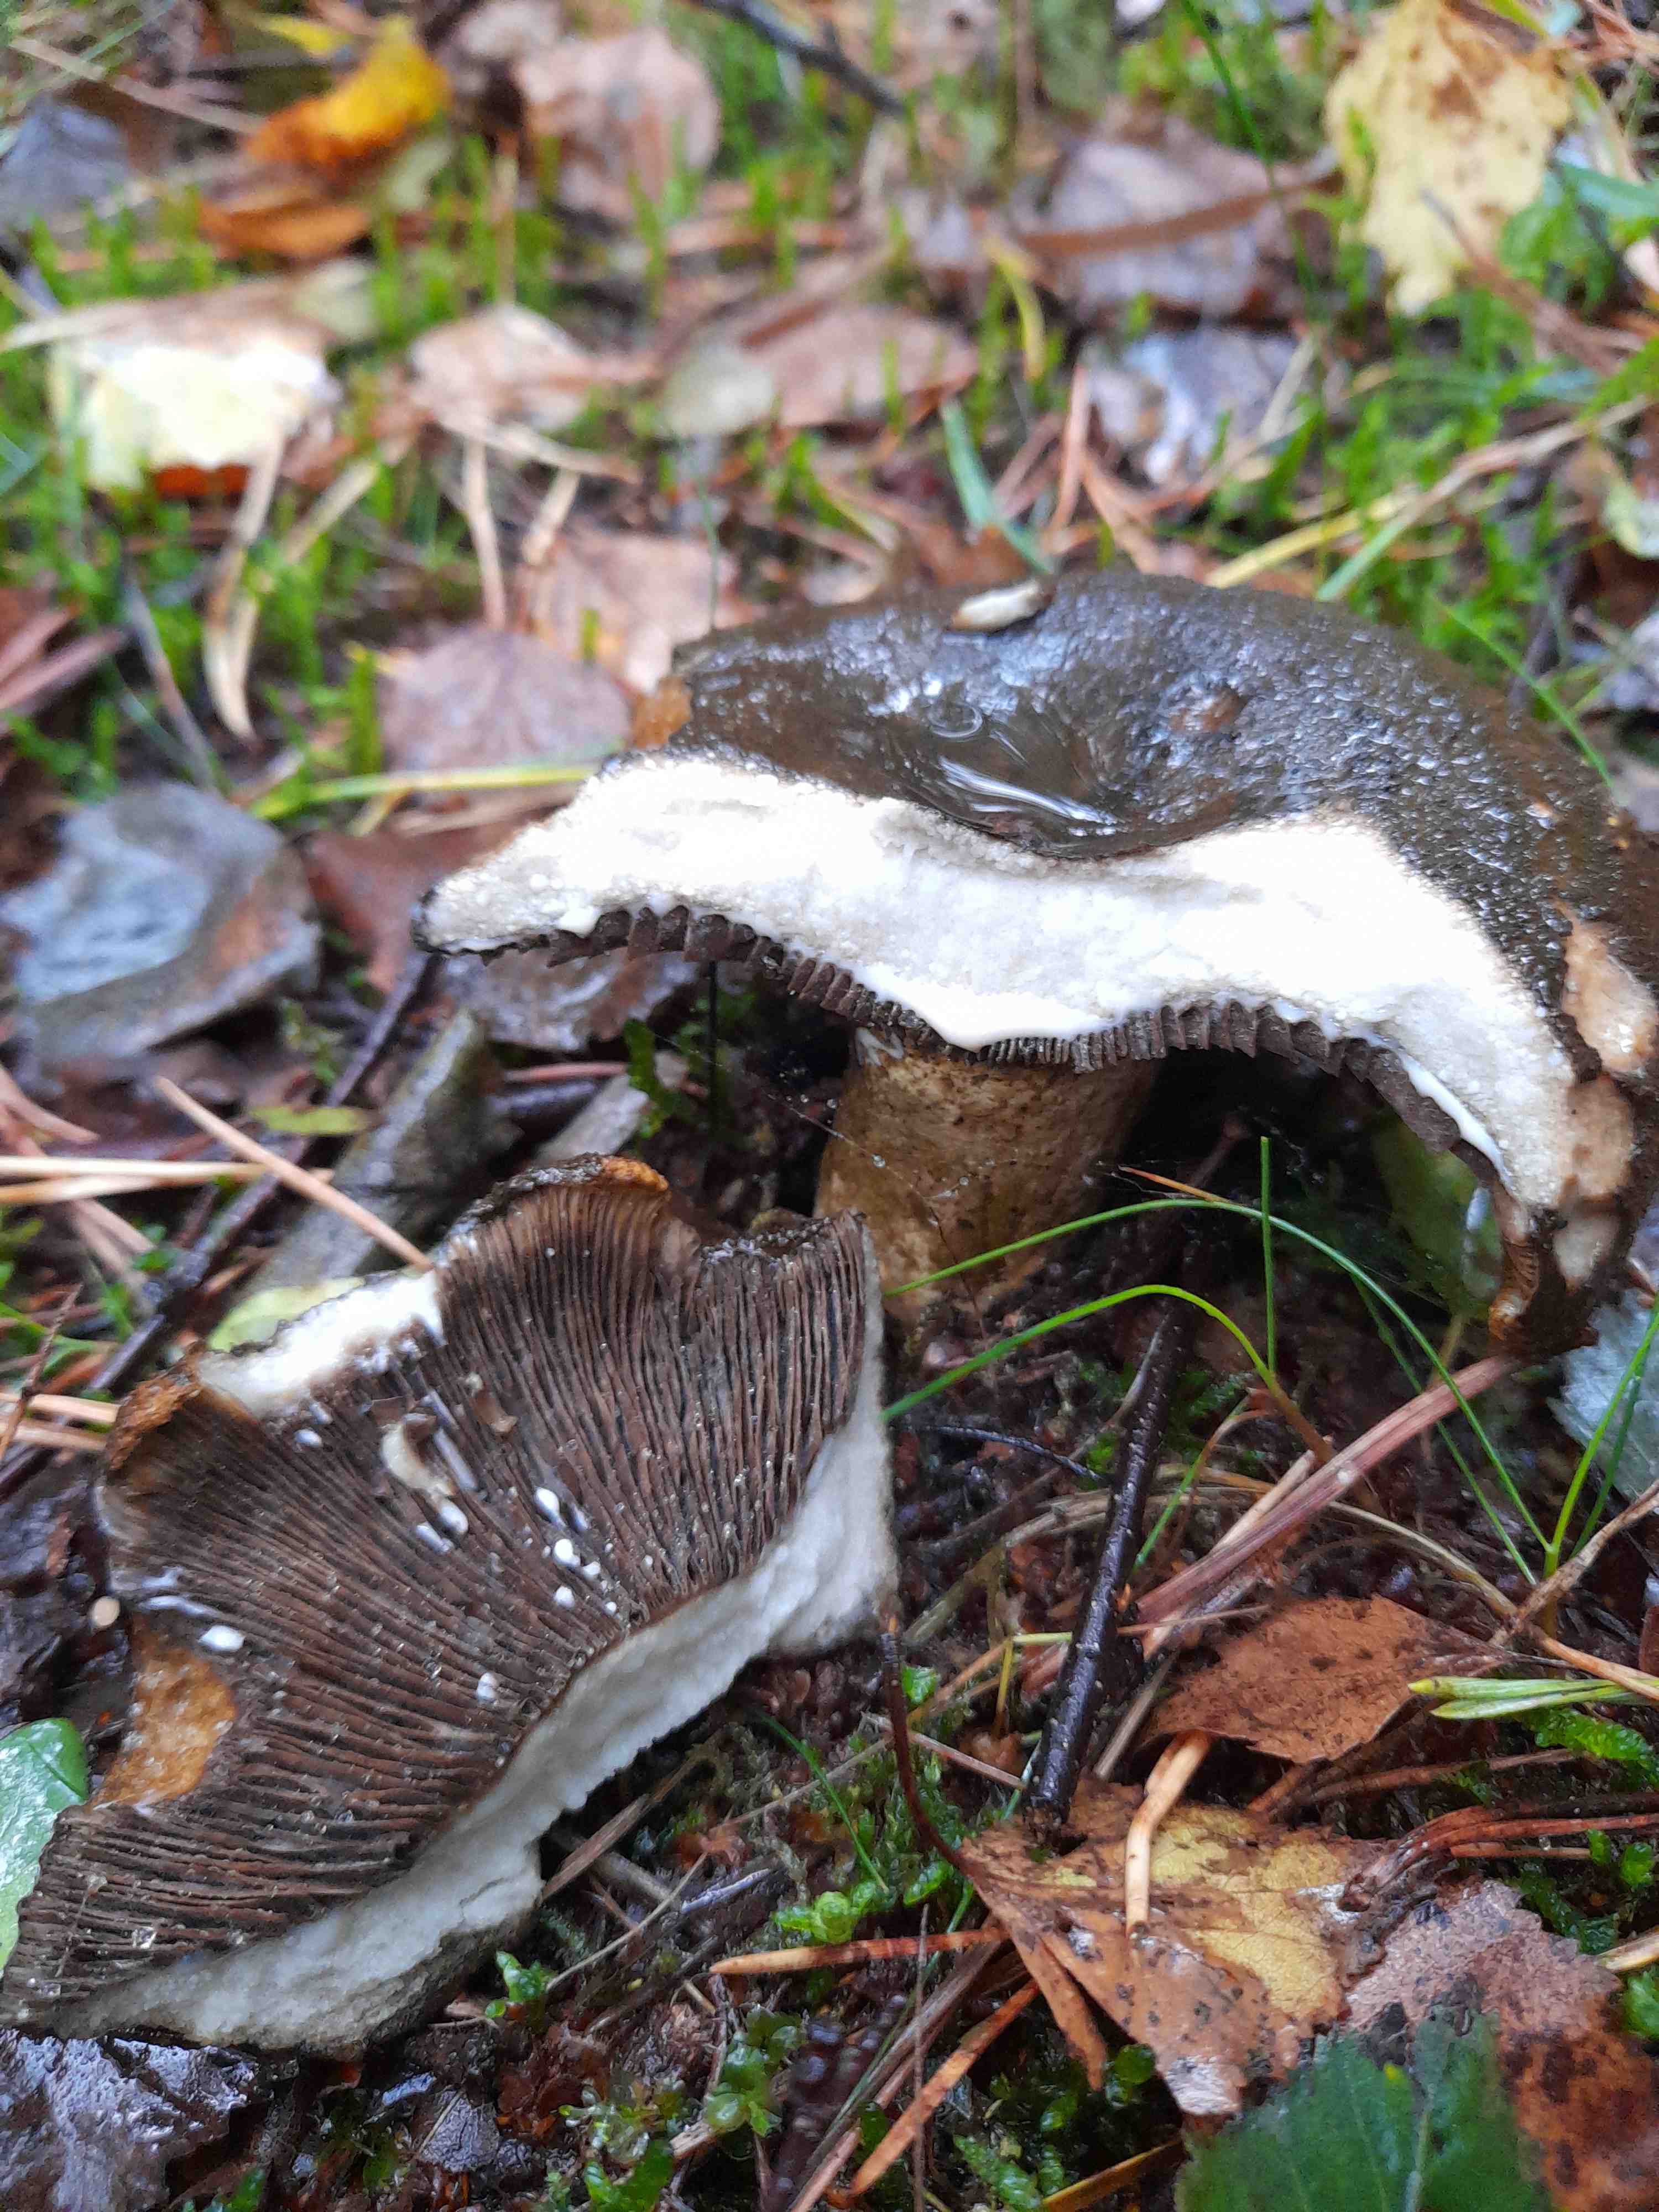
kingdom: Fungi
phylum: Basidiomycota
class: Agaricomycetes
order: Russulales
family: Russulaceae
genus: Lactarius
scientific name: Lactarius necator
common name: manddraber-mælkehat
